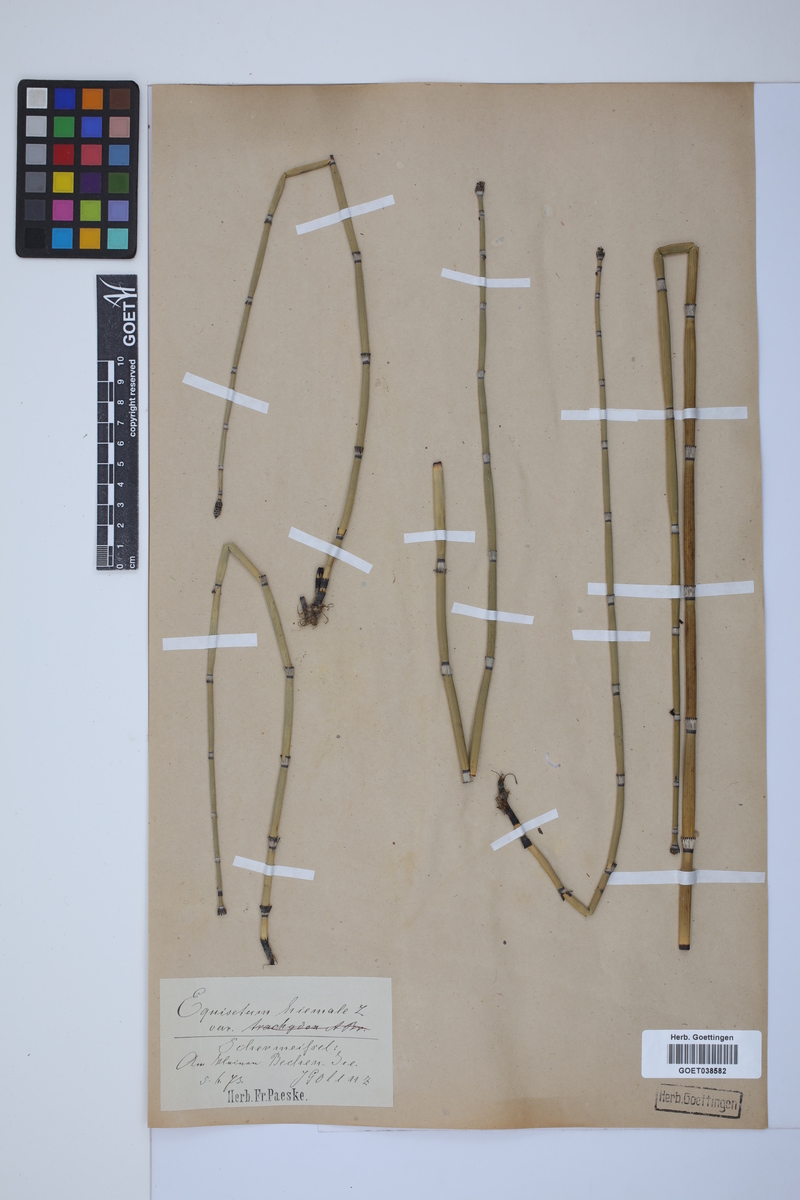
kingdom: Plantae
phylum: Tracheophyta
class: Polypodiopsida
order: Equisetales
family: Equisetaceae
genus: Equisetum
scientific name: Equisetum hyemale
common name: Rough horsetail
